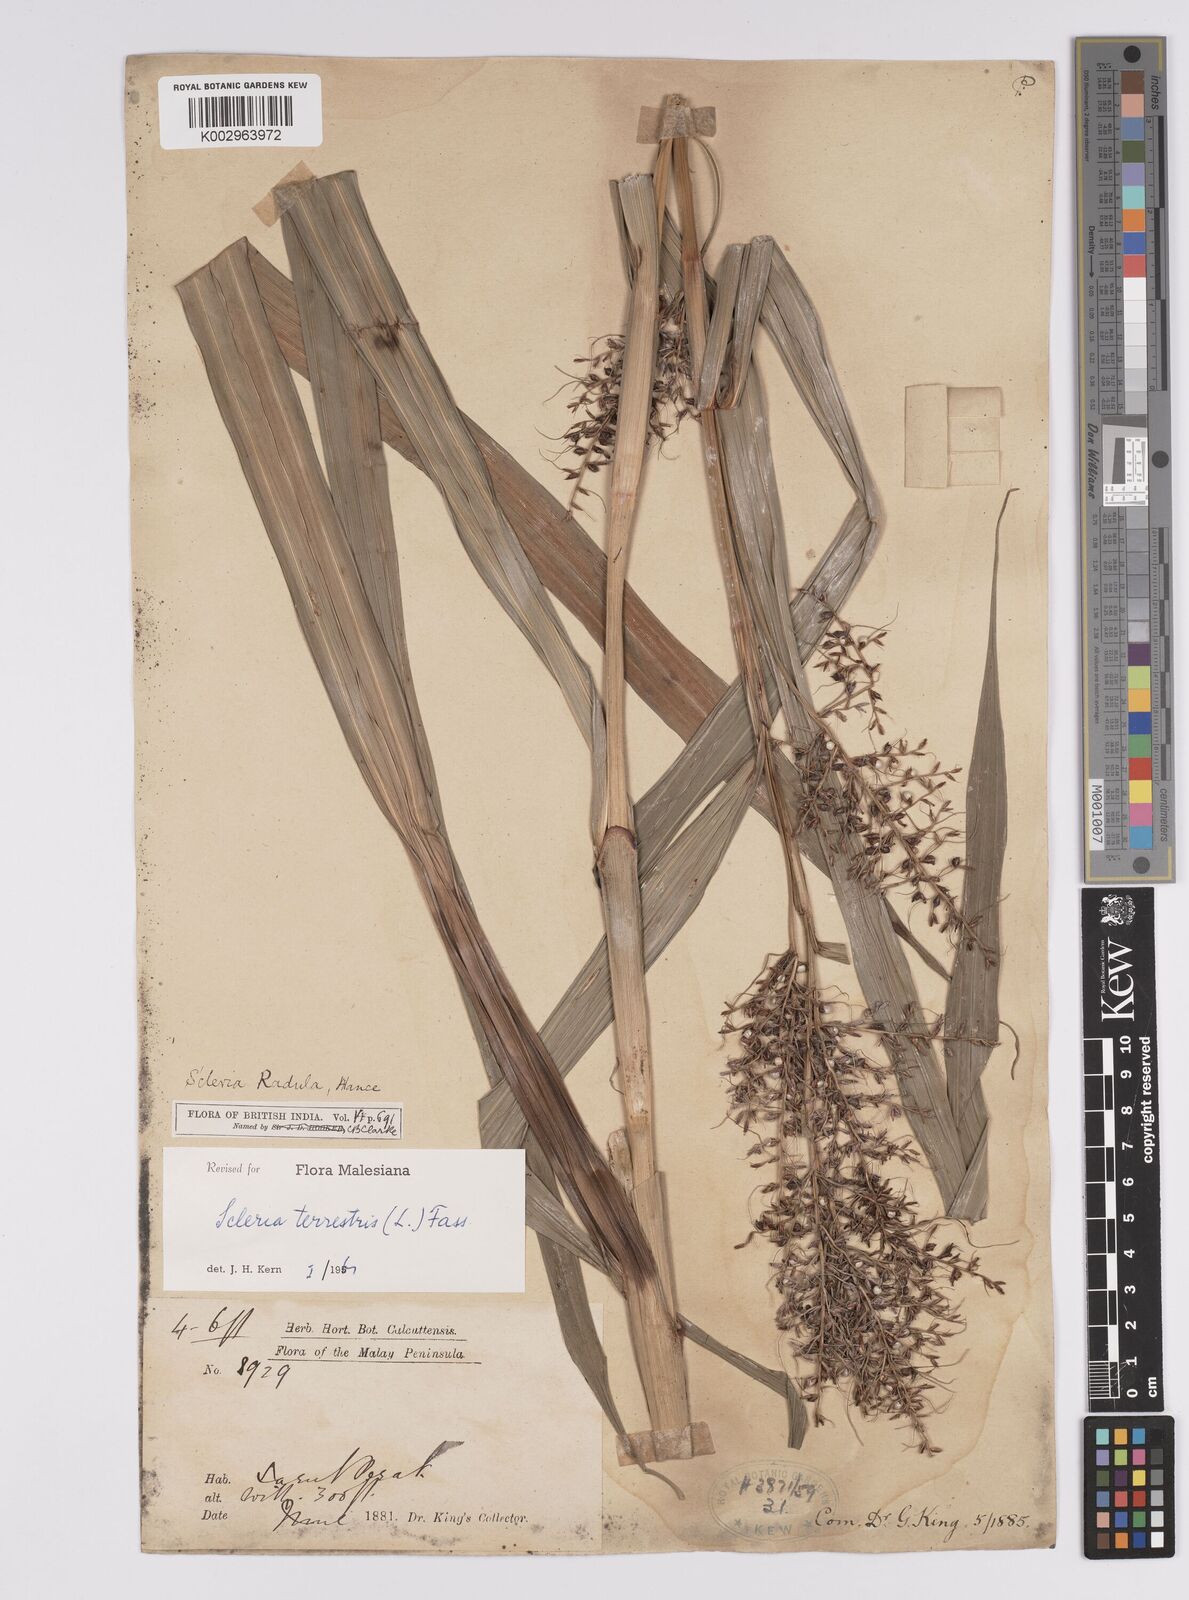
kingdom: Plantae
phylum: Tracheophyta
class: Liliopsida
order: Poales
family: Cyperaceae
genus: Scleria
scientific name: Scleria terrestris
